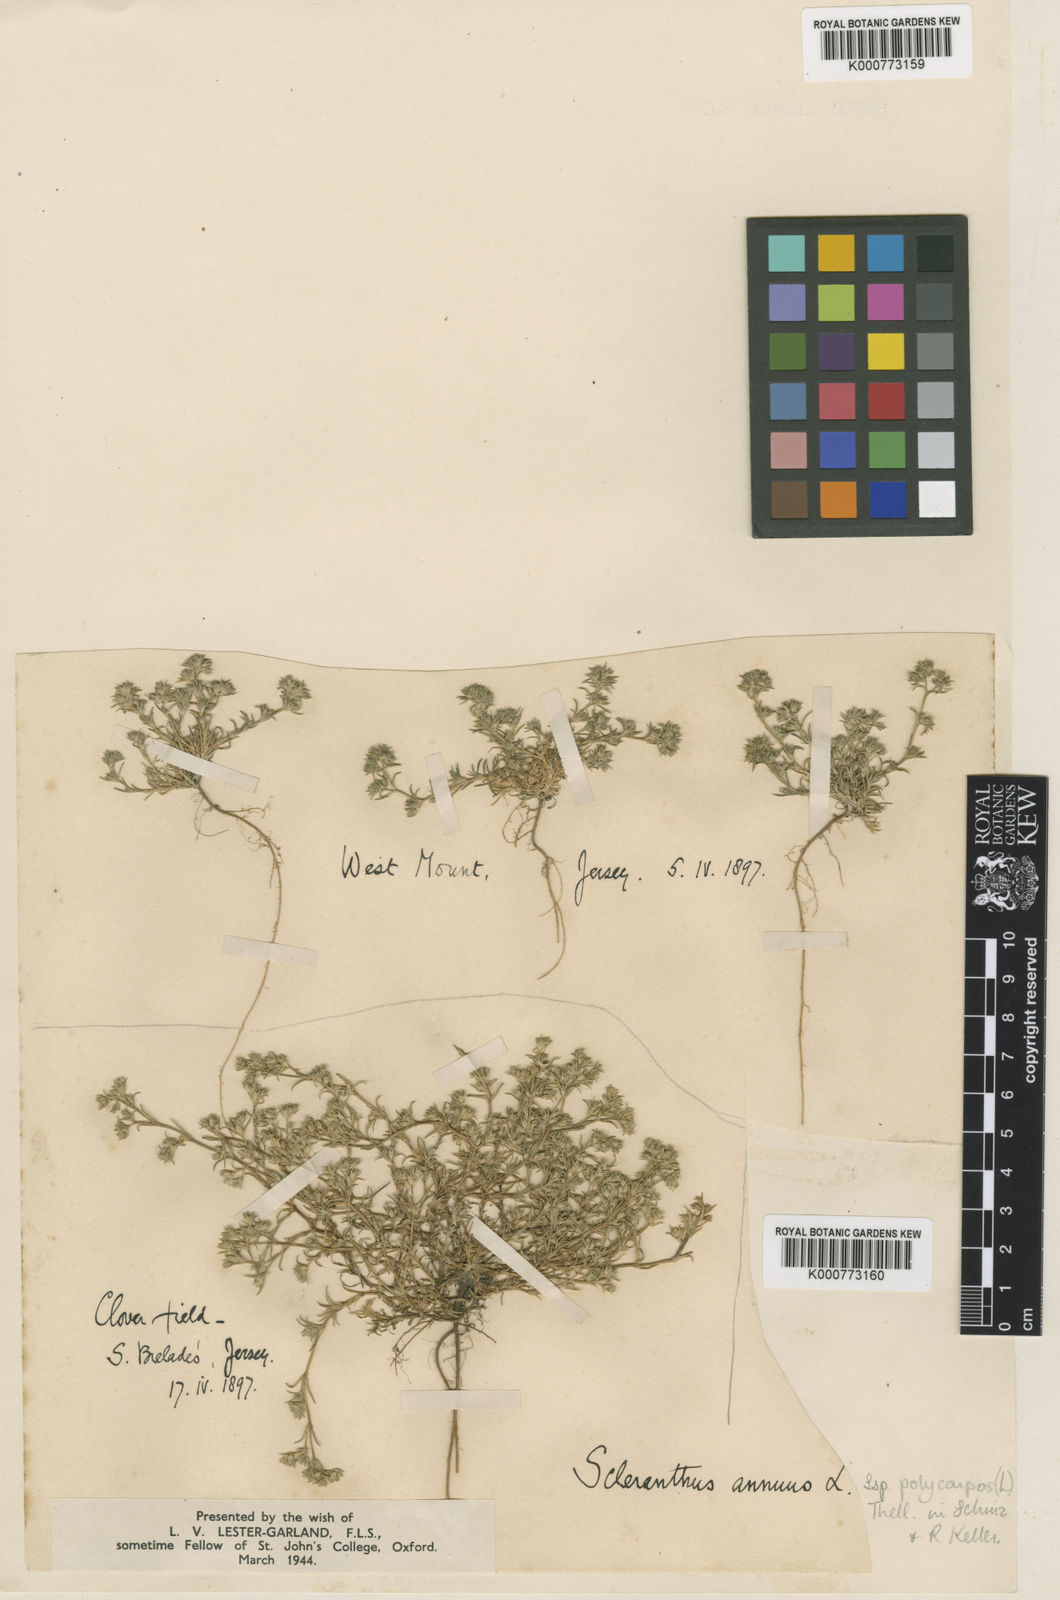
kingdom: Plantae
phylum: Tracheophyta
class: Magnoliopsida
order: Caryophyllales
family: Caryophyllaceae
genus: Scleranthus
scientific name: Scleranthus annuus
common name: Annual knawel
